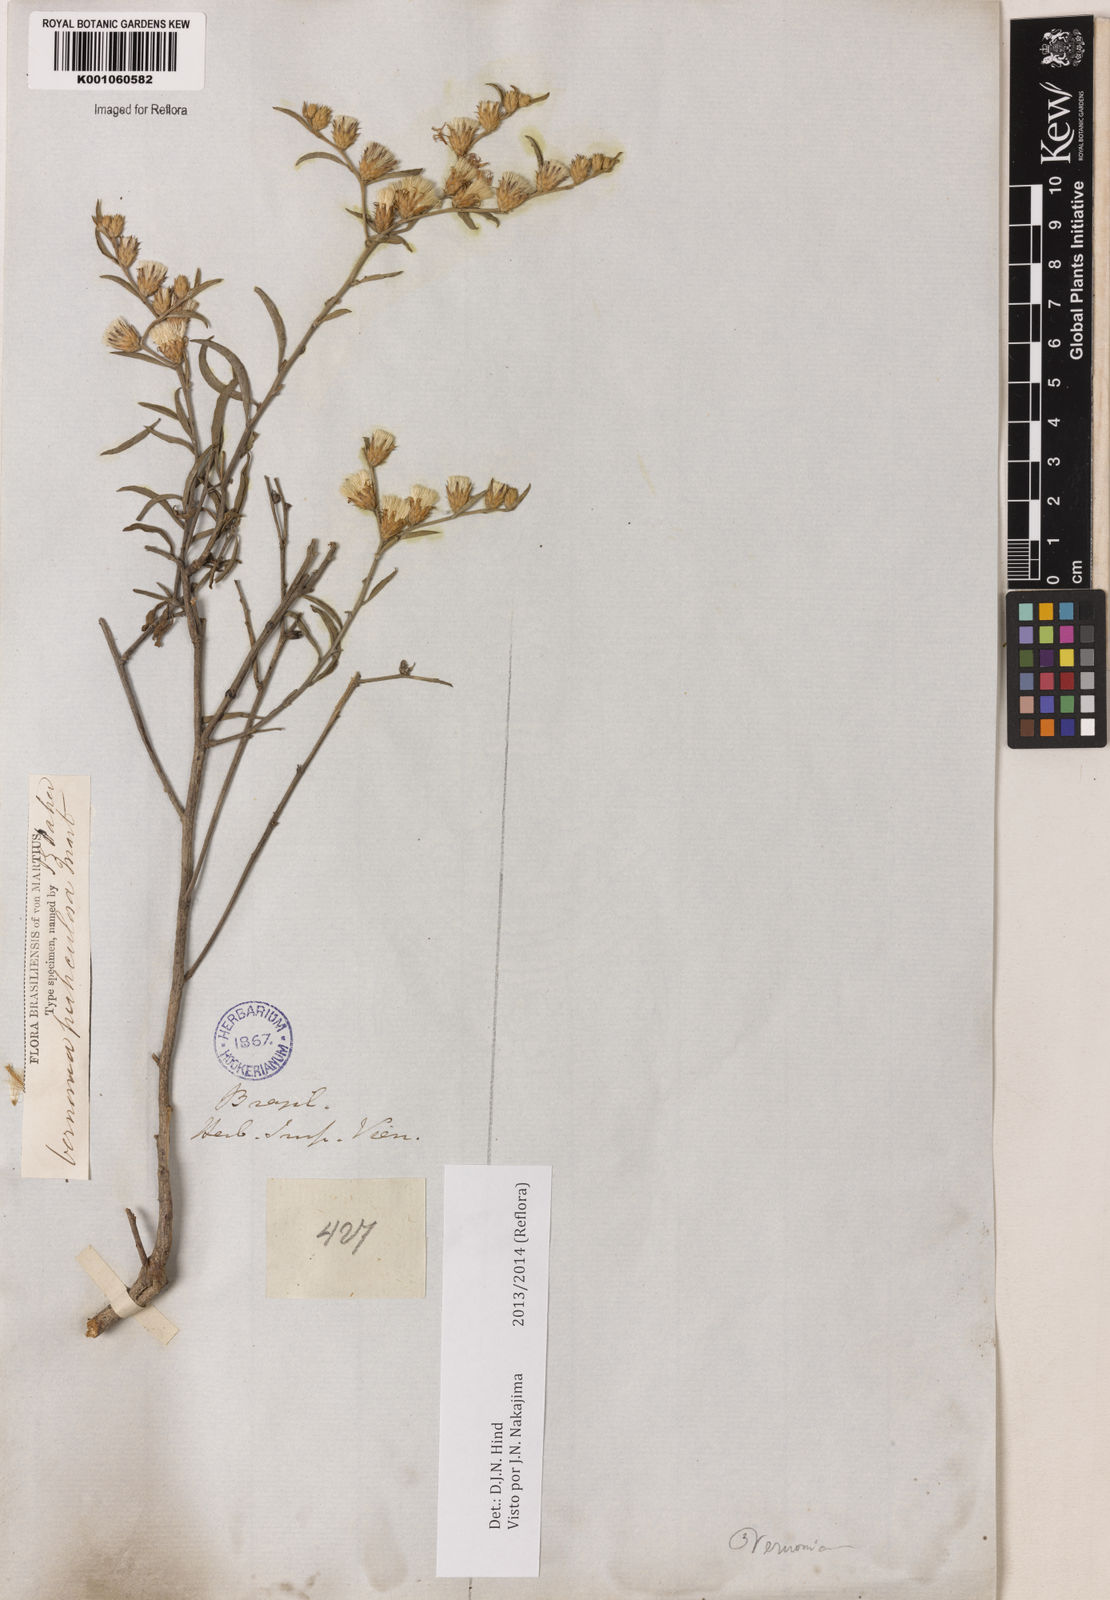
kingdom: Plantae
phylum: Tracheophyta
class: Magnoliopsida
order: Asterales
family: Asteraceae
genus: Lepidaploa
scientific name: Lepidaploa rufogrisea
